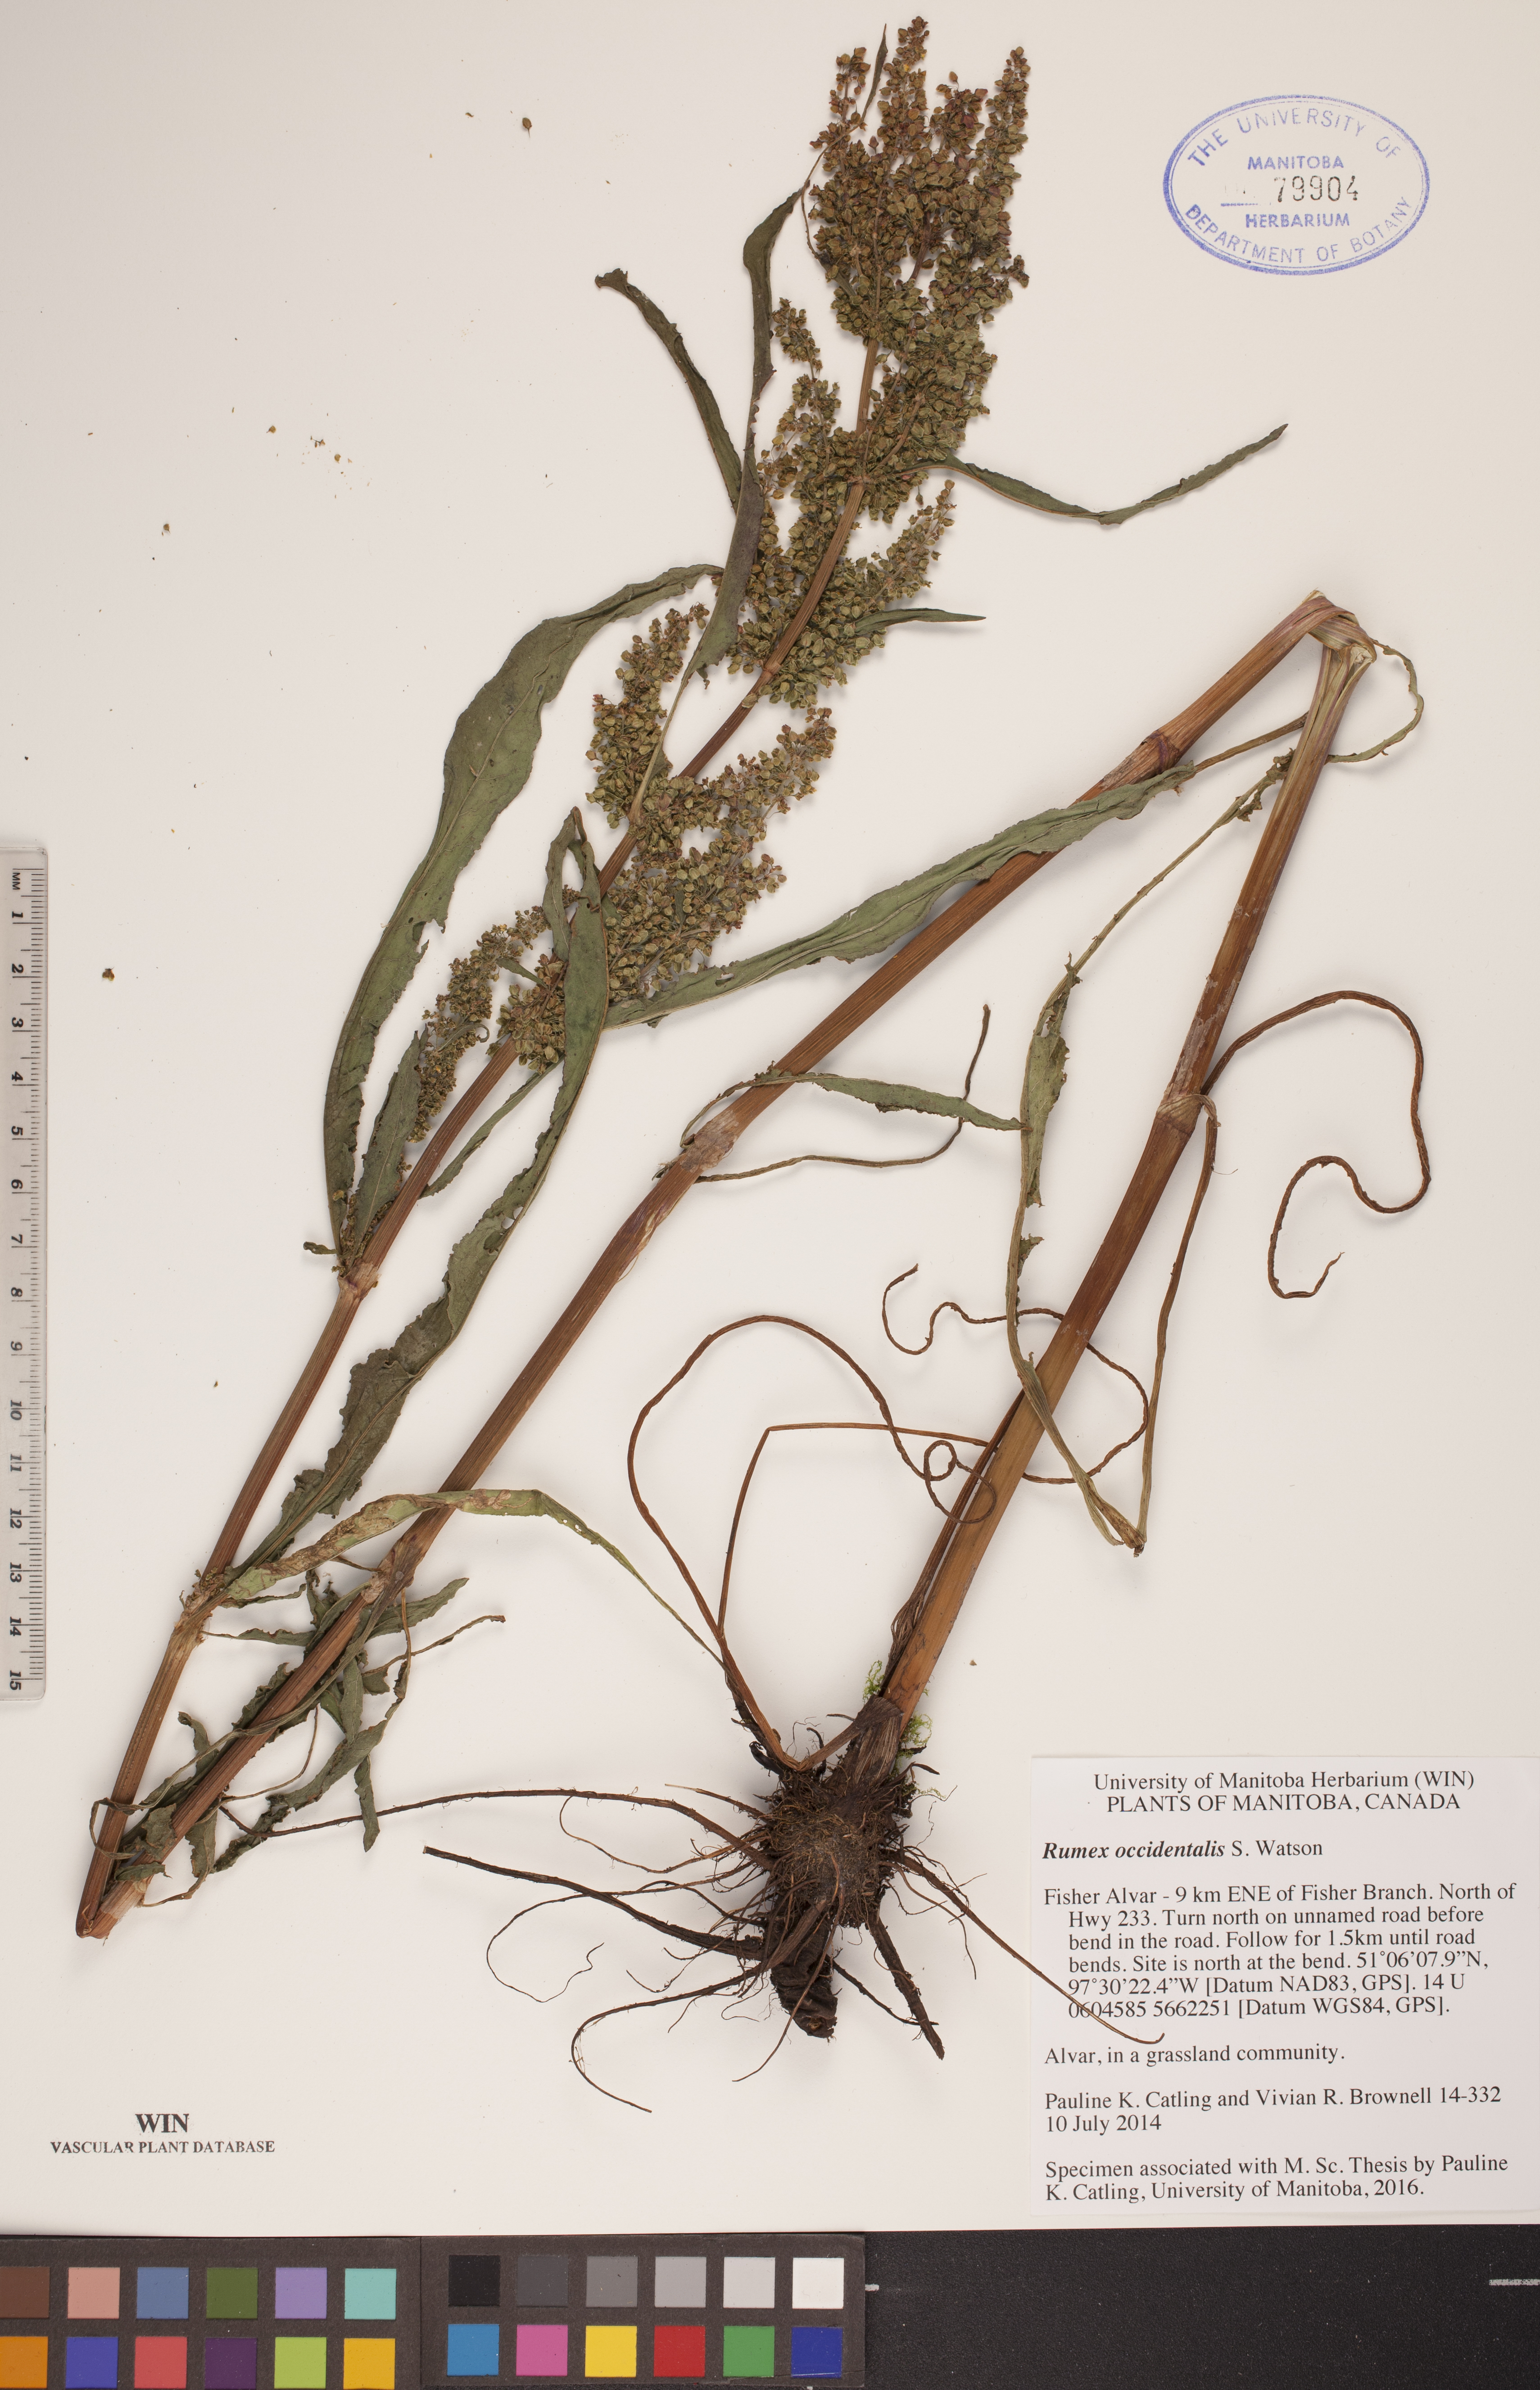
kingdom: Plantae
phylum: Tracheophyta
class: Magnoliopsida
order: Caryophyllales
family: Polygonaceae
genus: Rumex
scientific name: Rumex occidentalis
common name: Western dock
